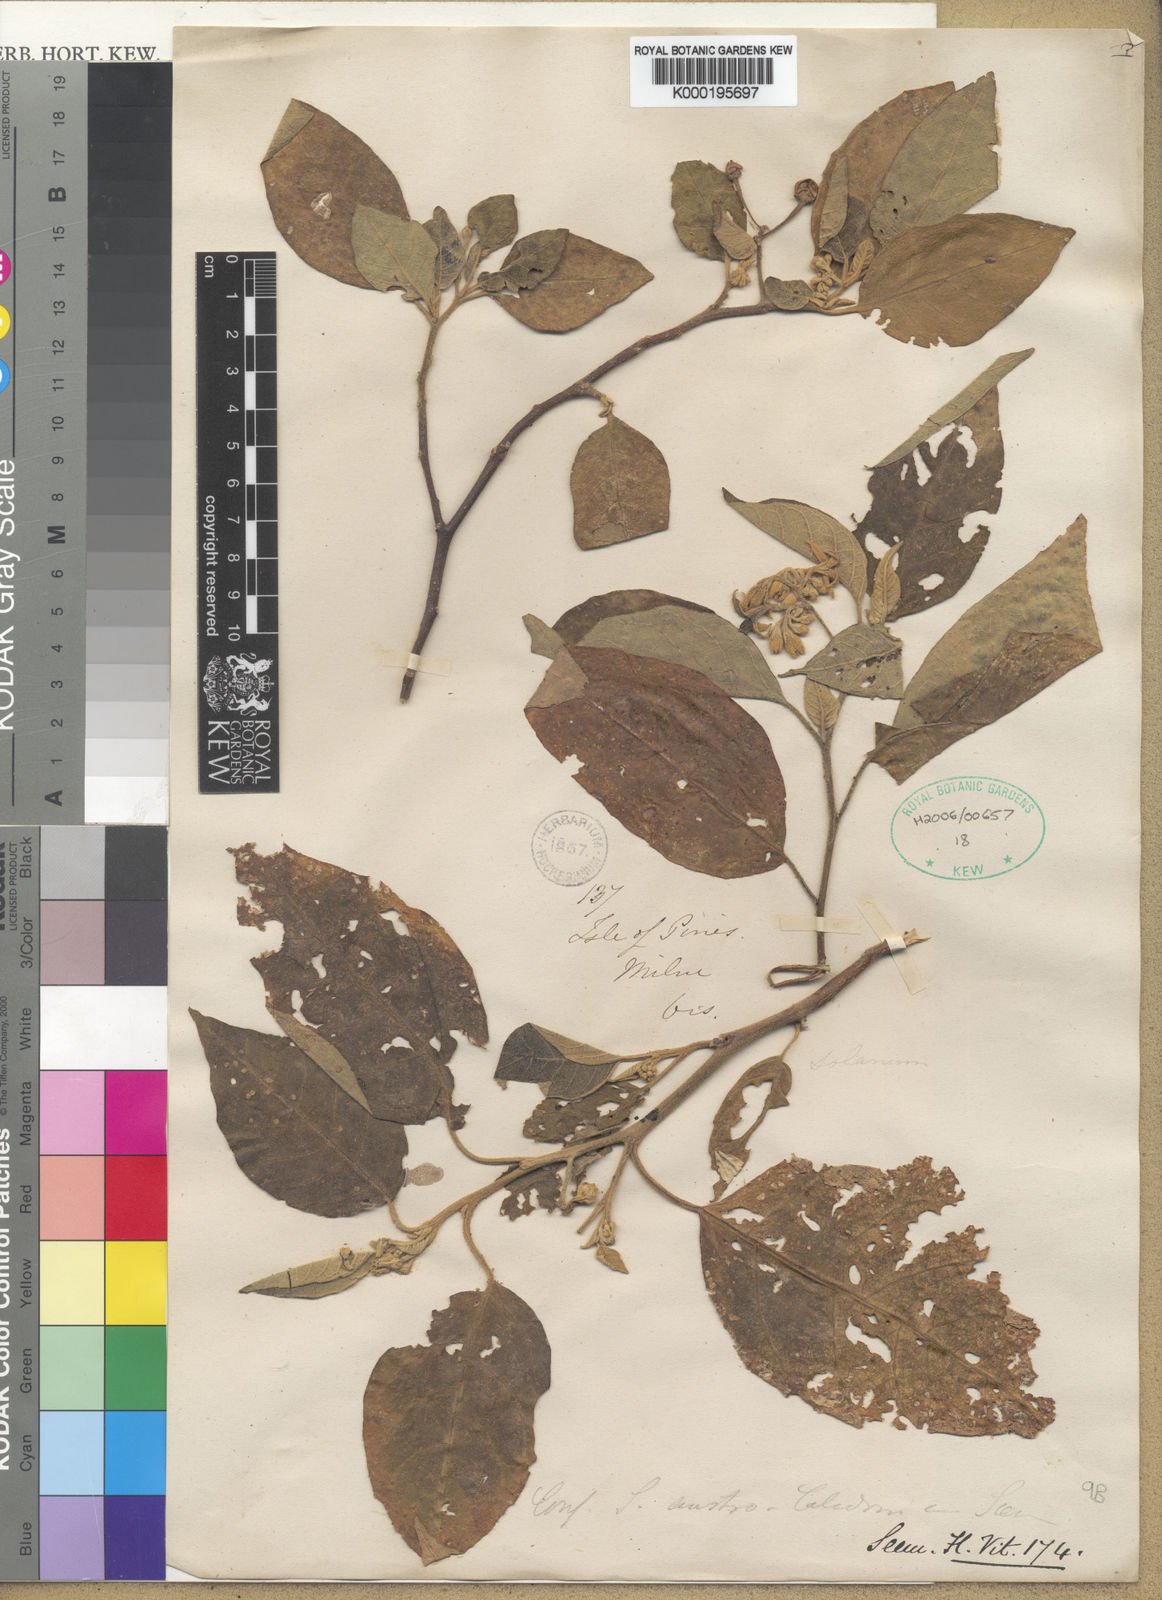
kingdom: Plantae
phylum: Tracheophyta
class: Magnoliopsida
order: Solanales
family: Solanaceae
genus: Solanum
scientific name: Solanum austrocaledonicum
